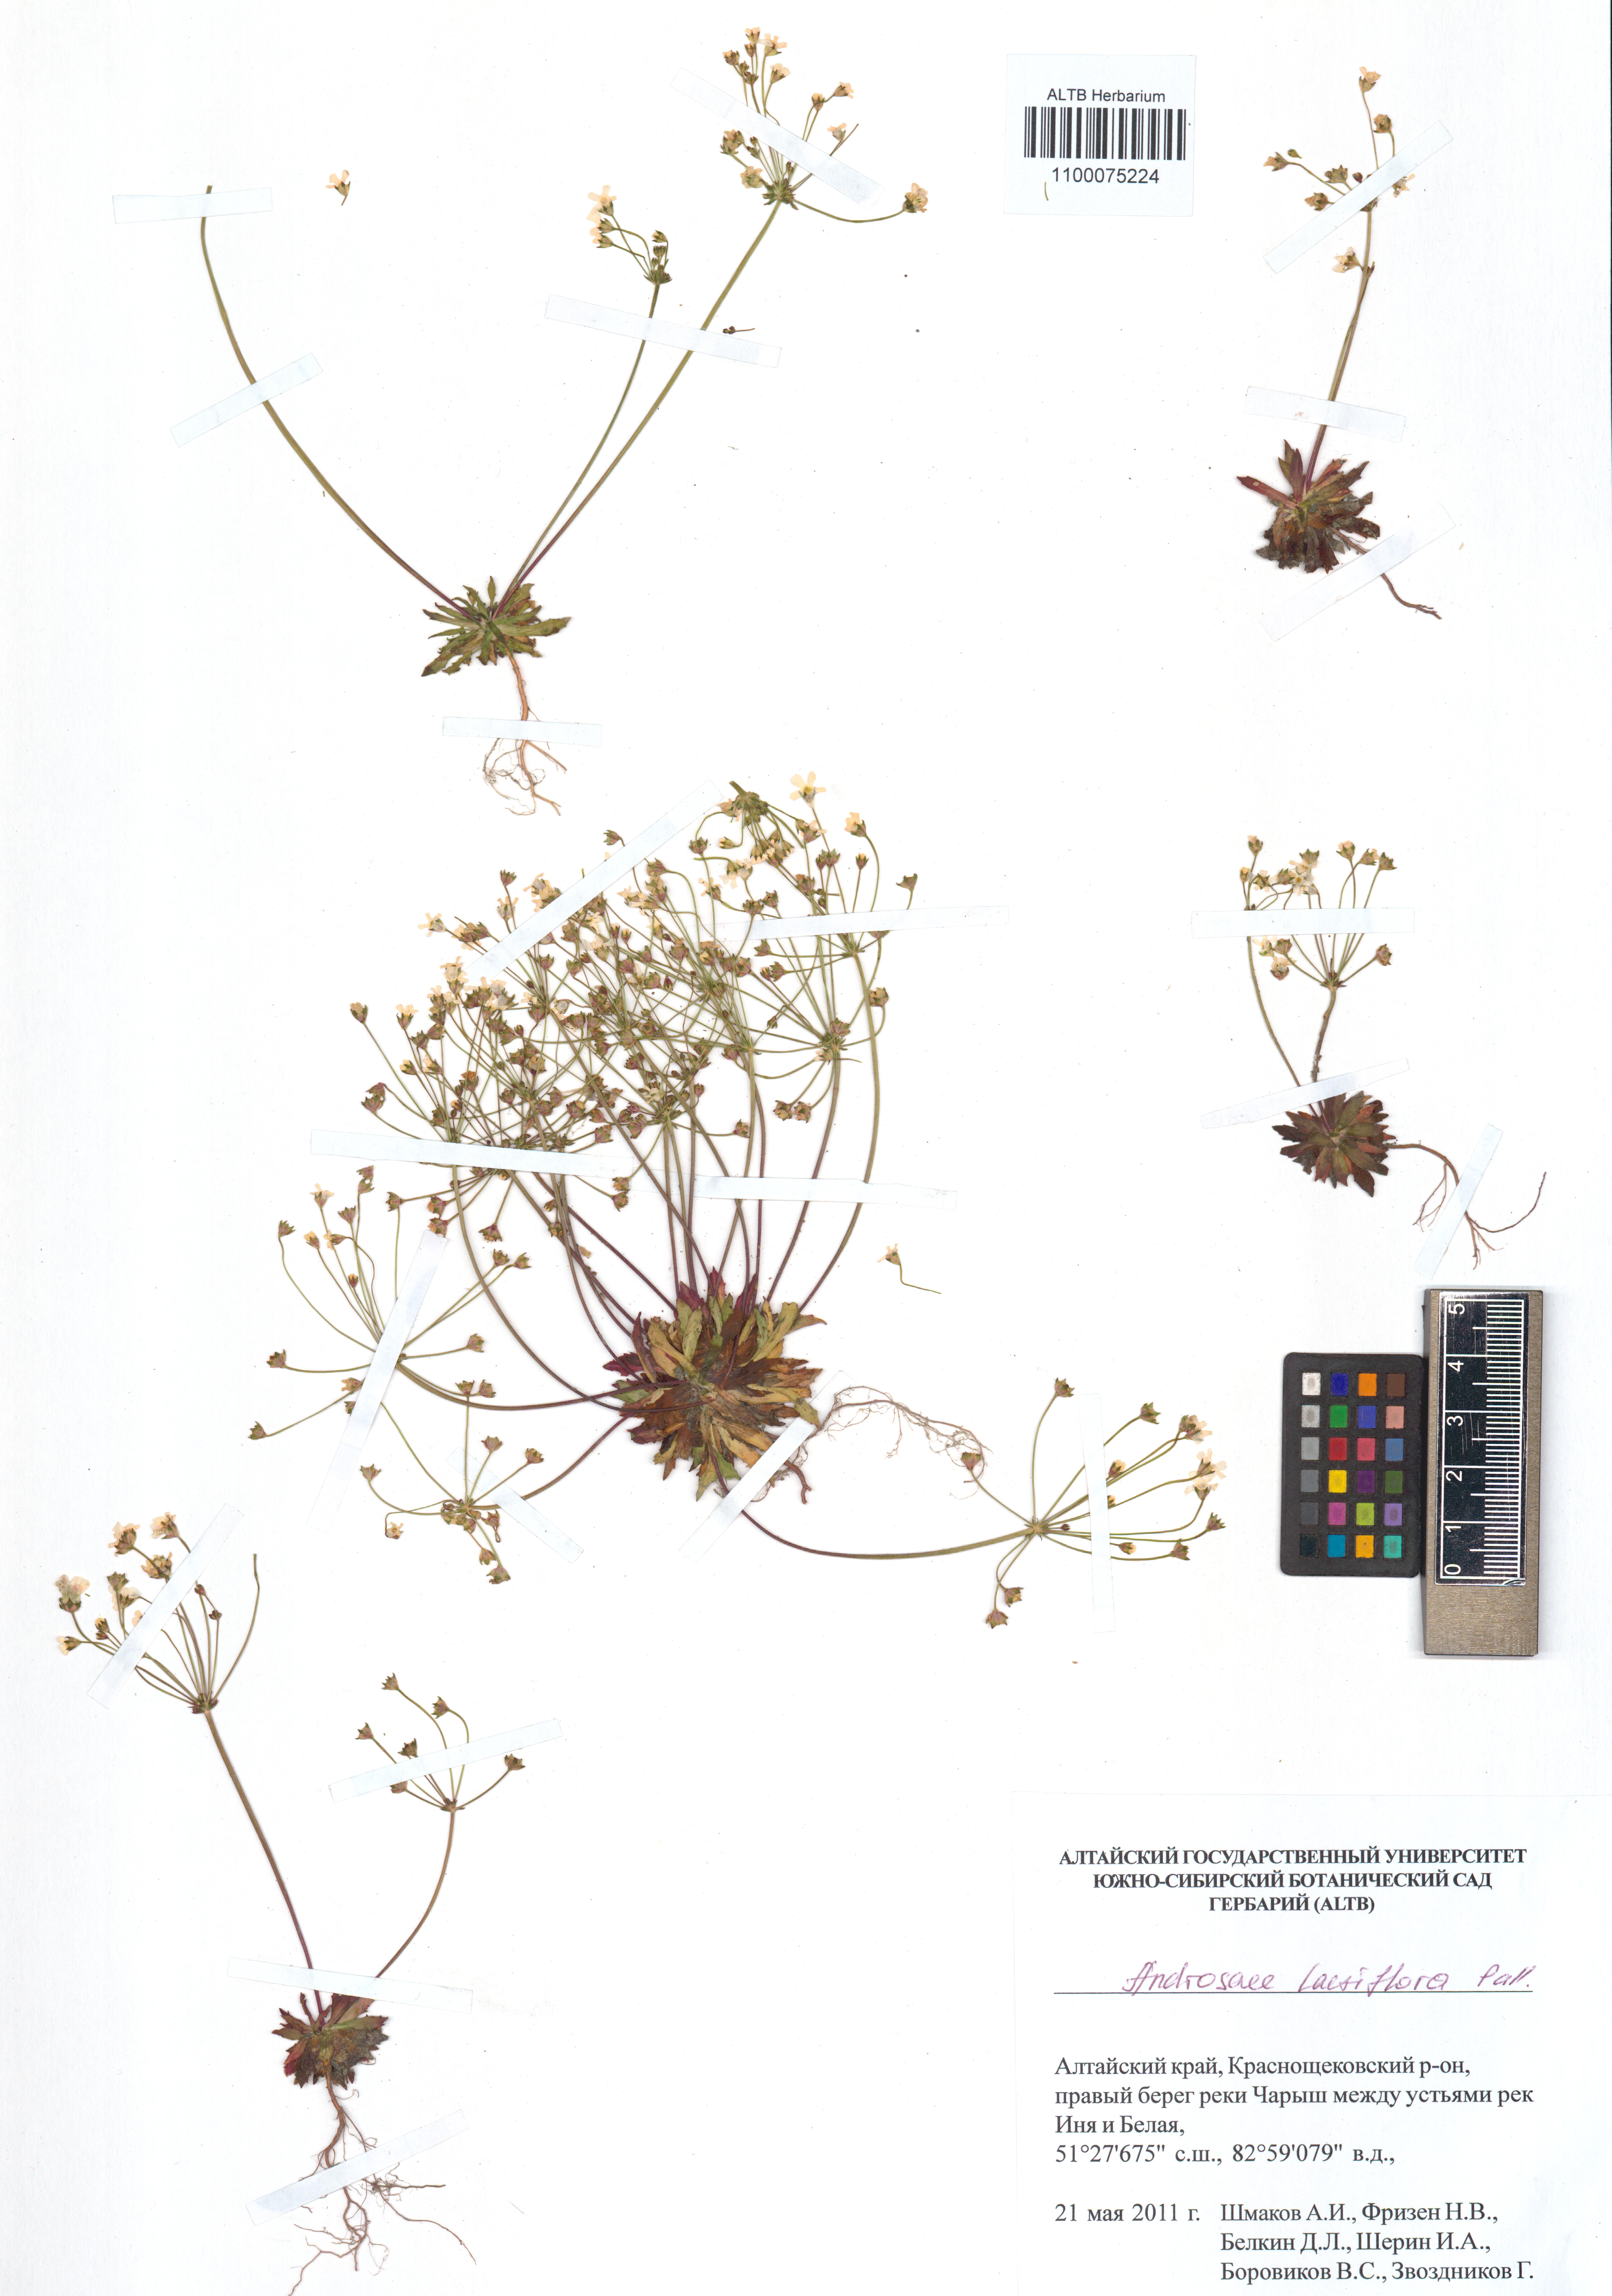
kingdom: Plantae
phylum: Tracheophyta
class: Magnoliopsida
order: Ericales
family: Primulaceae
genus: Androsace
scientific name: Androsace lactiflora
